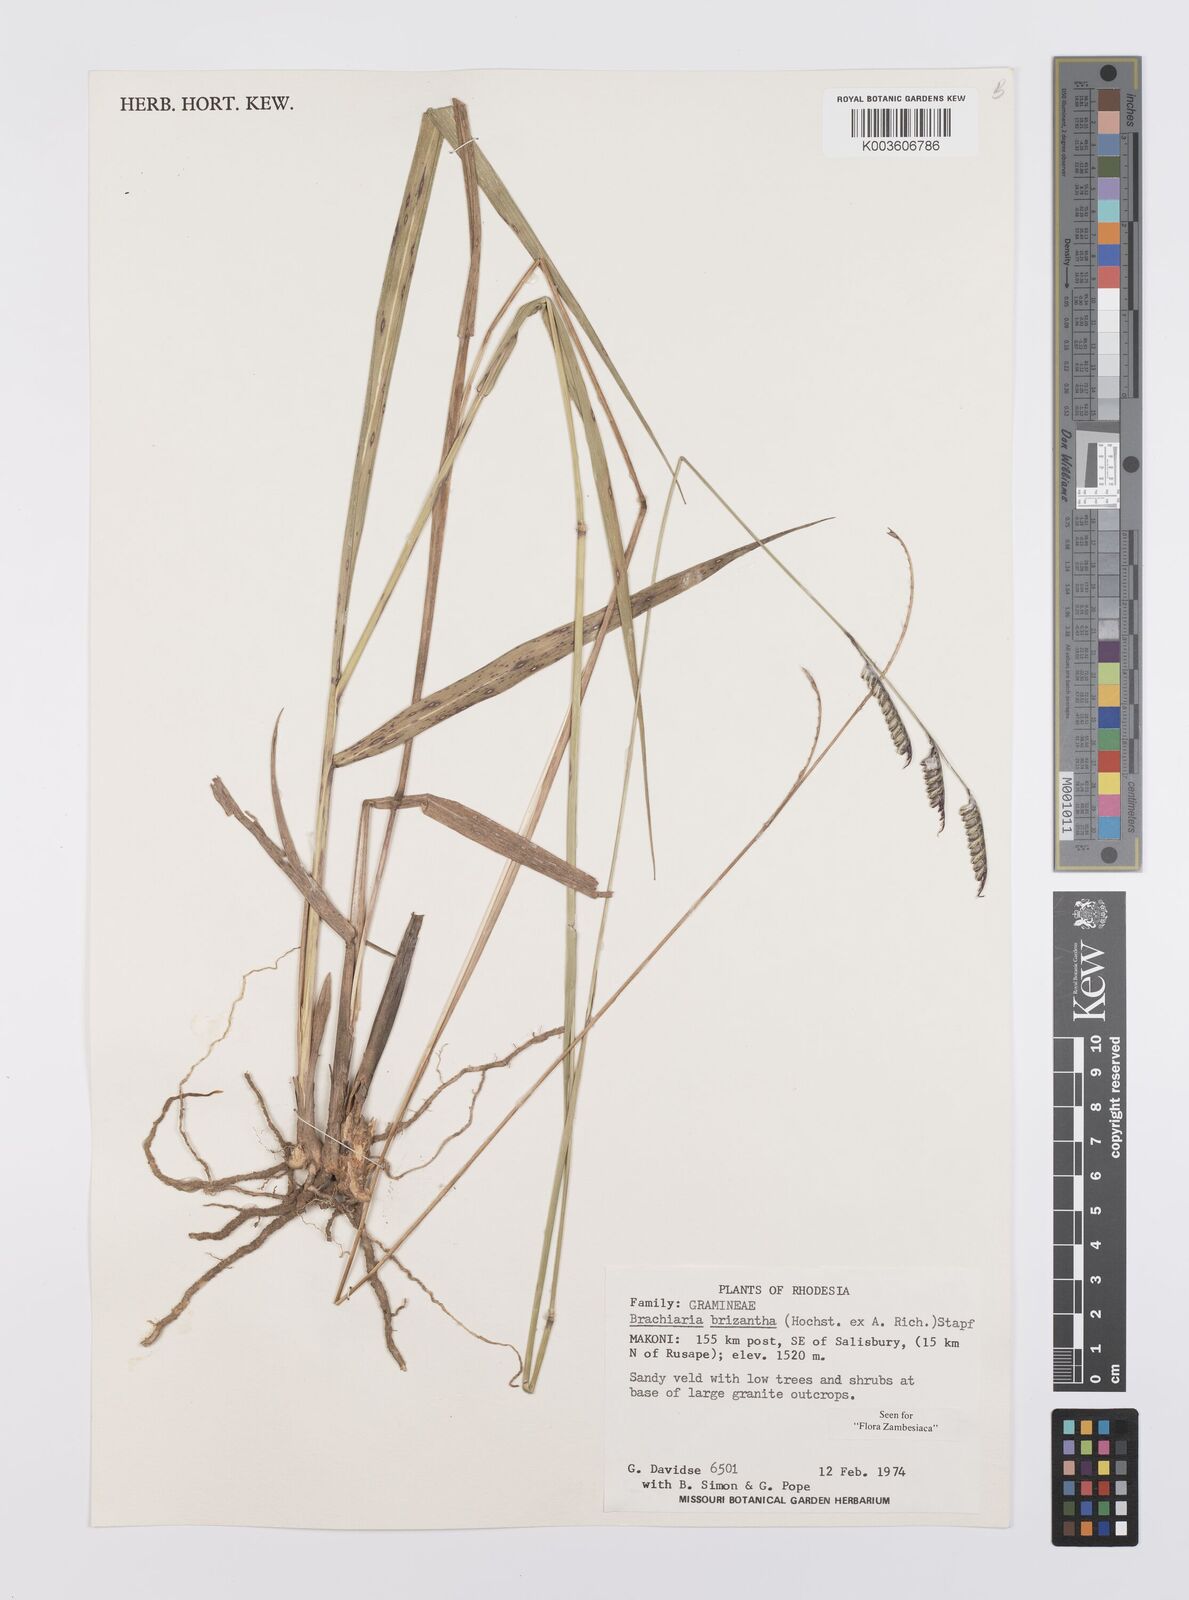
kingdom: Plantae
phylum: Tracheophyta
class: Liliopsida
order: Poales
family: Poaceae
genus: Urochloa
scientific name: Urochloa brizantha
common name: Palisade signalgrass
